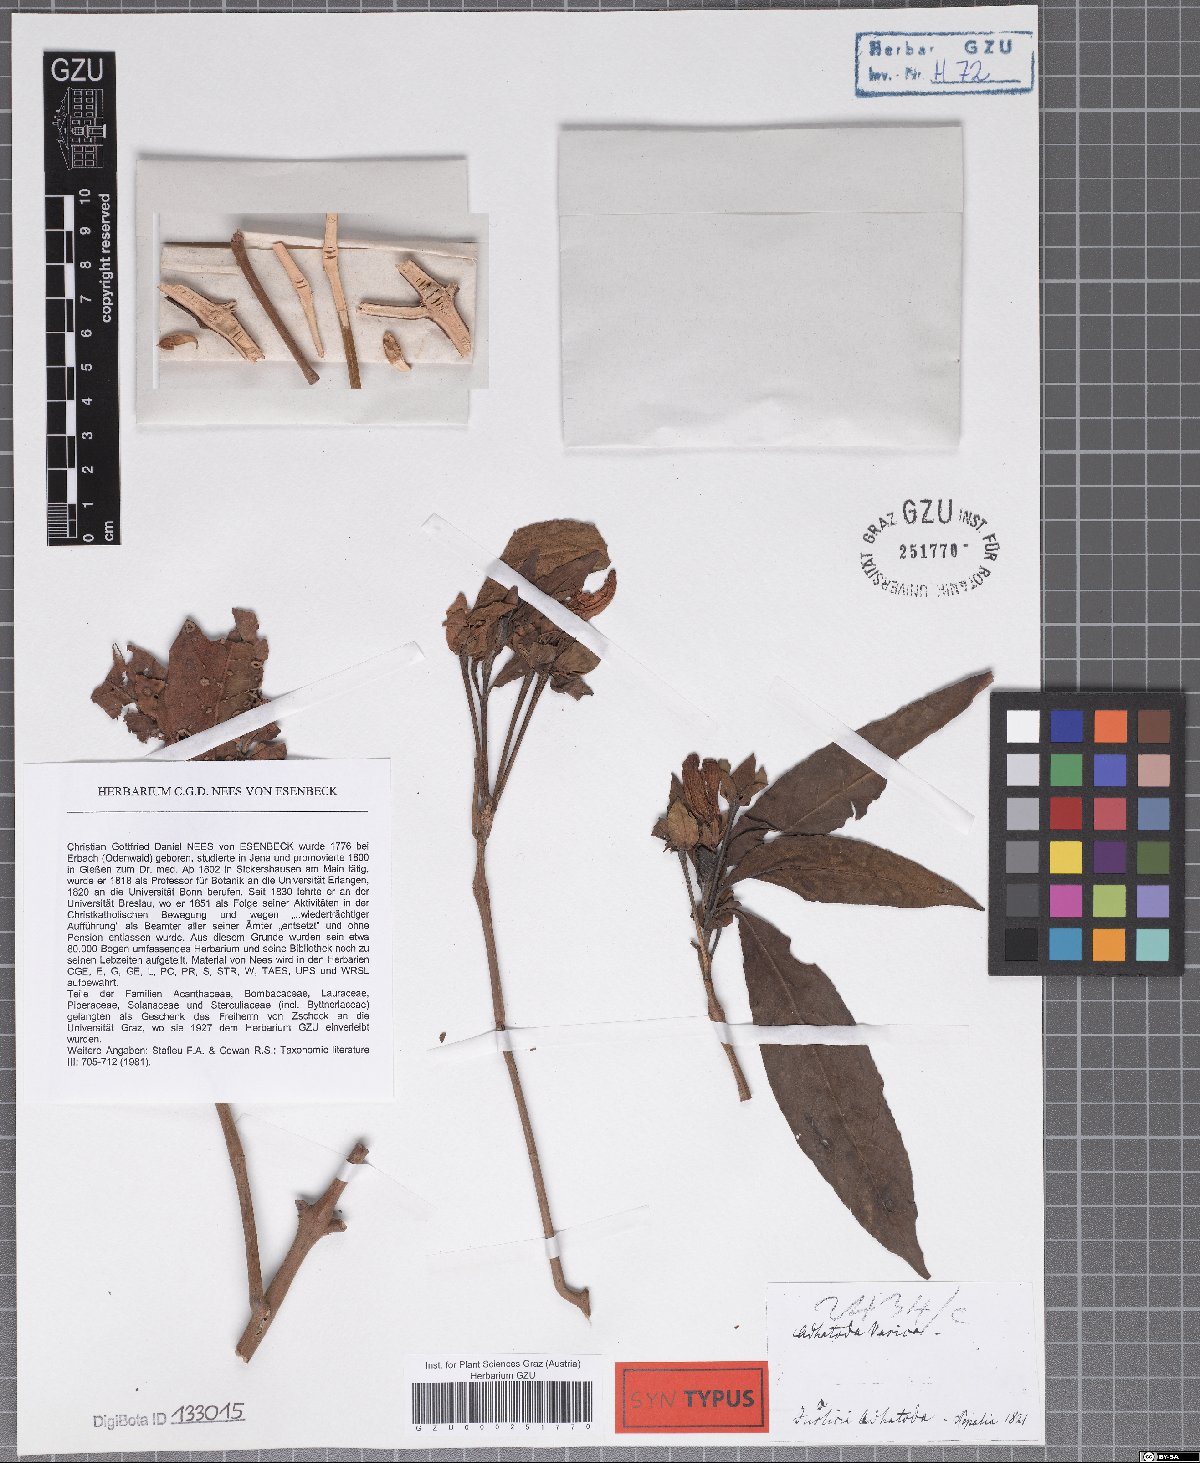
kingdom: Plantae
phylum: Tracheophyta
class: Magnoliopsida
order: Lamiales
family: Acanthaceae
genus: Justicia
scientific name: Justicia adhatoda
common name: Malabar nut
